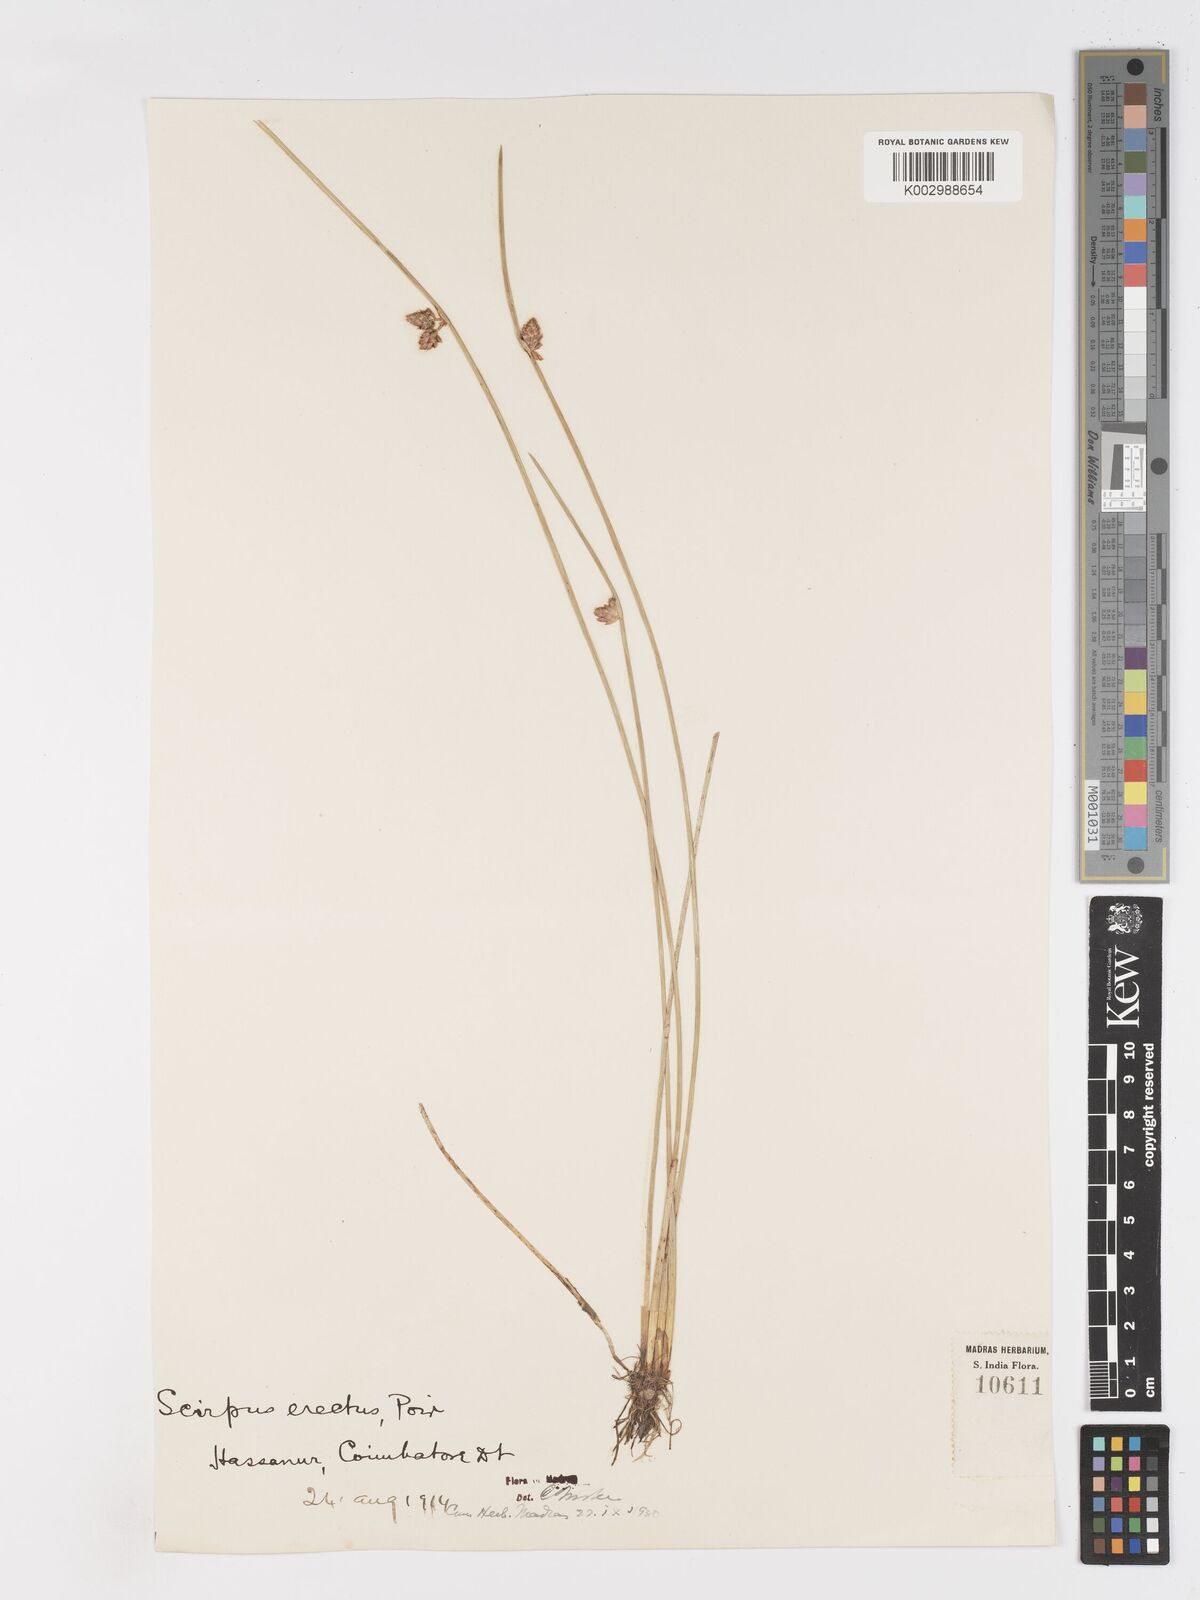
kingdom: Plantae
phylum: Tracheophyta
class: Liliopsida
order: Poales
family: Cyperaceae
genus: Schoenoplectiella
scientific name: Schoenoplectiella juncoides
